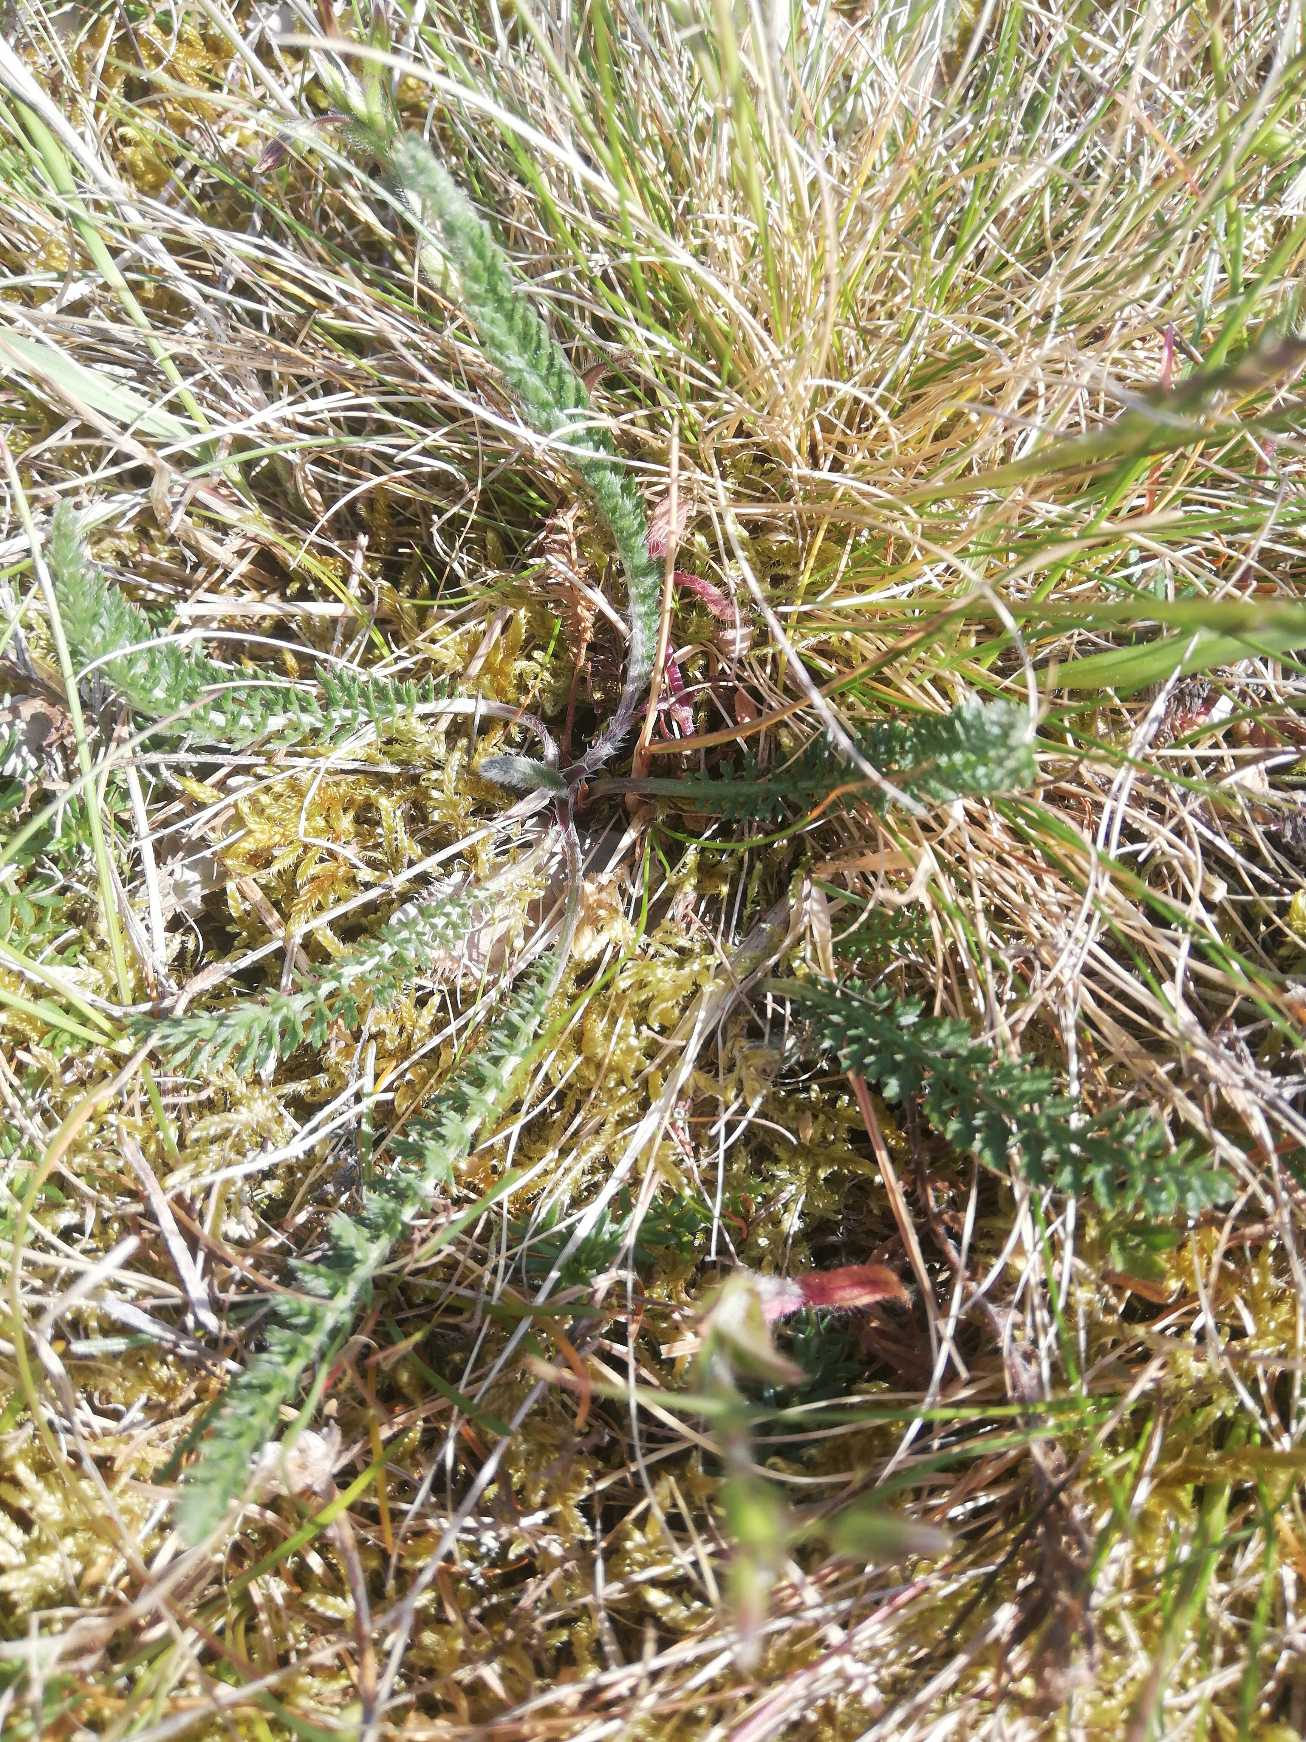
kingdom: Plantae
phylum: Tracheophyta
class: Magnoliopsida
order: Asterales
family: Asteraceae
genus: Achillea
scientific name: Achillea millefolium
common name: Almindelig røllike
